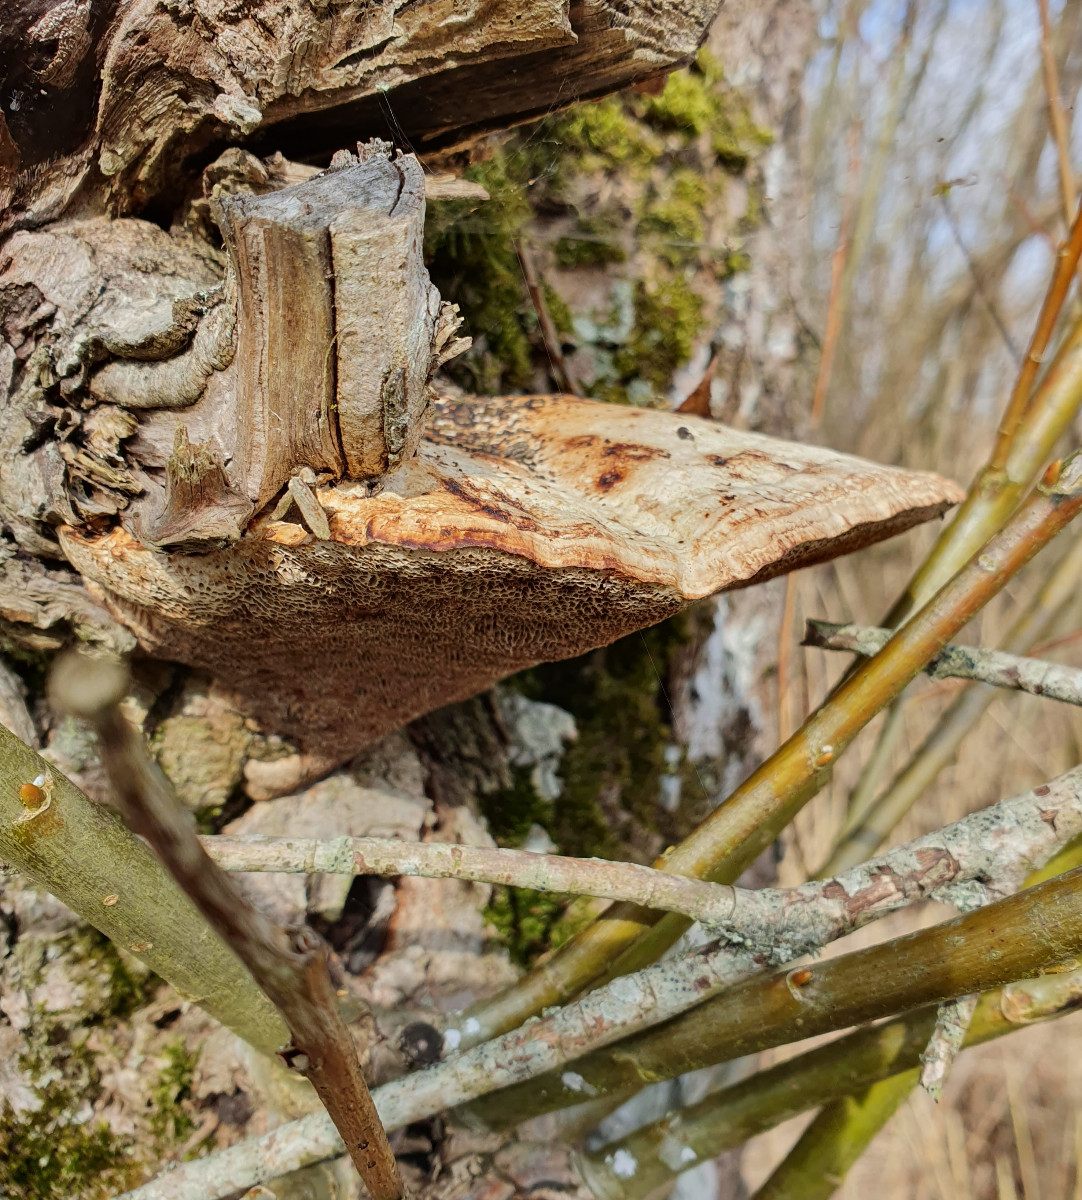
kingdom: Fungi
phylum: Basidiomycota
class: Agaricomycetes
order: Polyporales
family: Polyporaceae
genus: Daedaleopsis
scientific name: Daedaleopsis confragosa
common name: rødmende læderporesvamp
